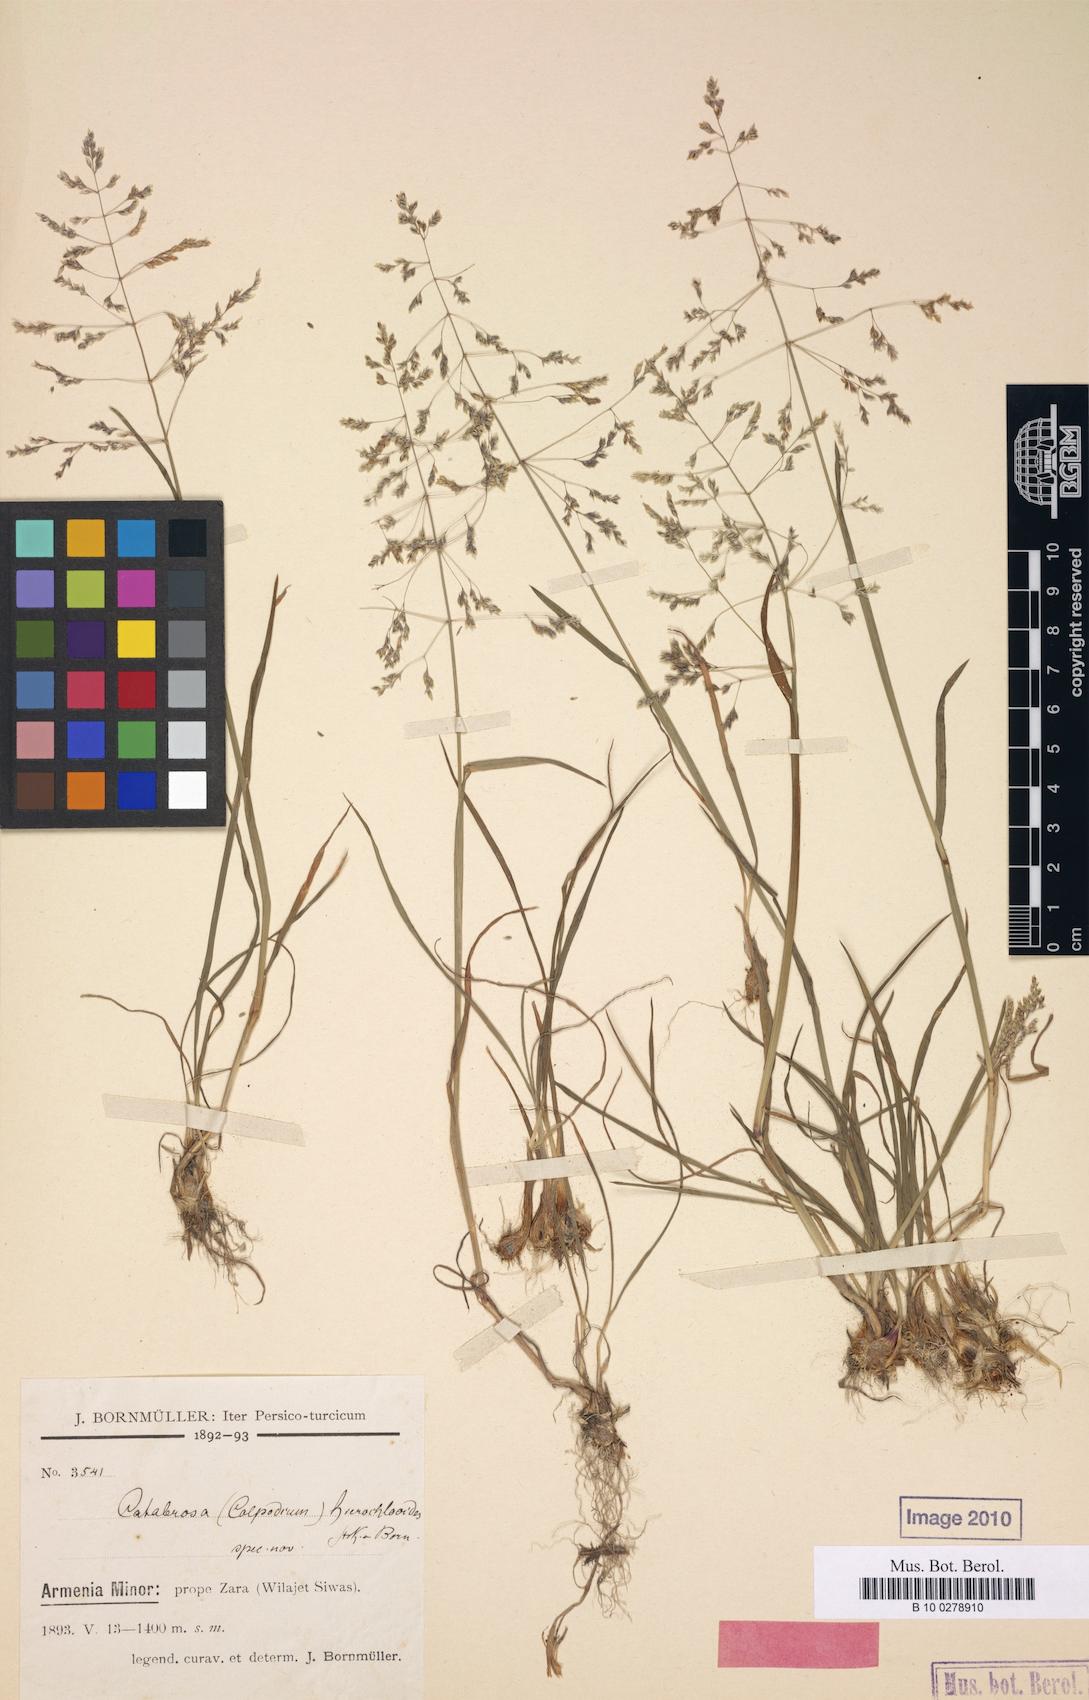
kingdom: Plantae
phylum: Tracheophyta
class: Liliopsida
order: Poales
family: Poaceae
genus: Catabrosella
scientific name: Catabrosella humilis
